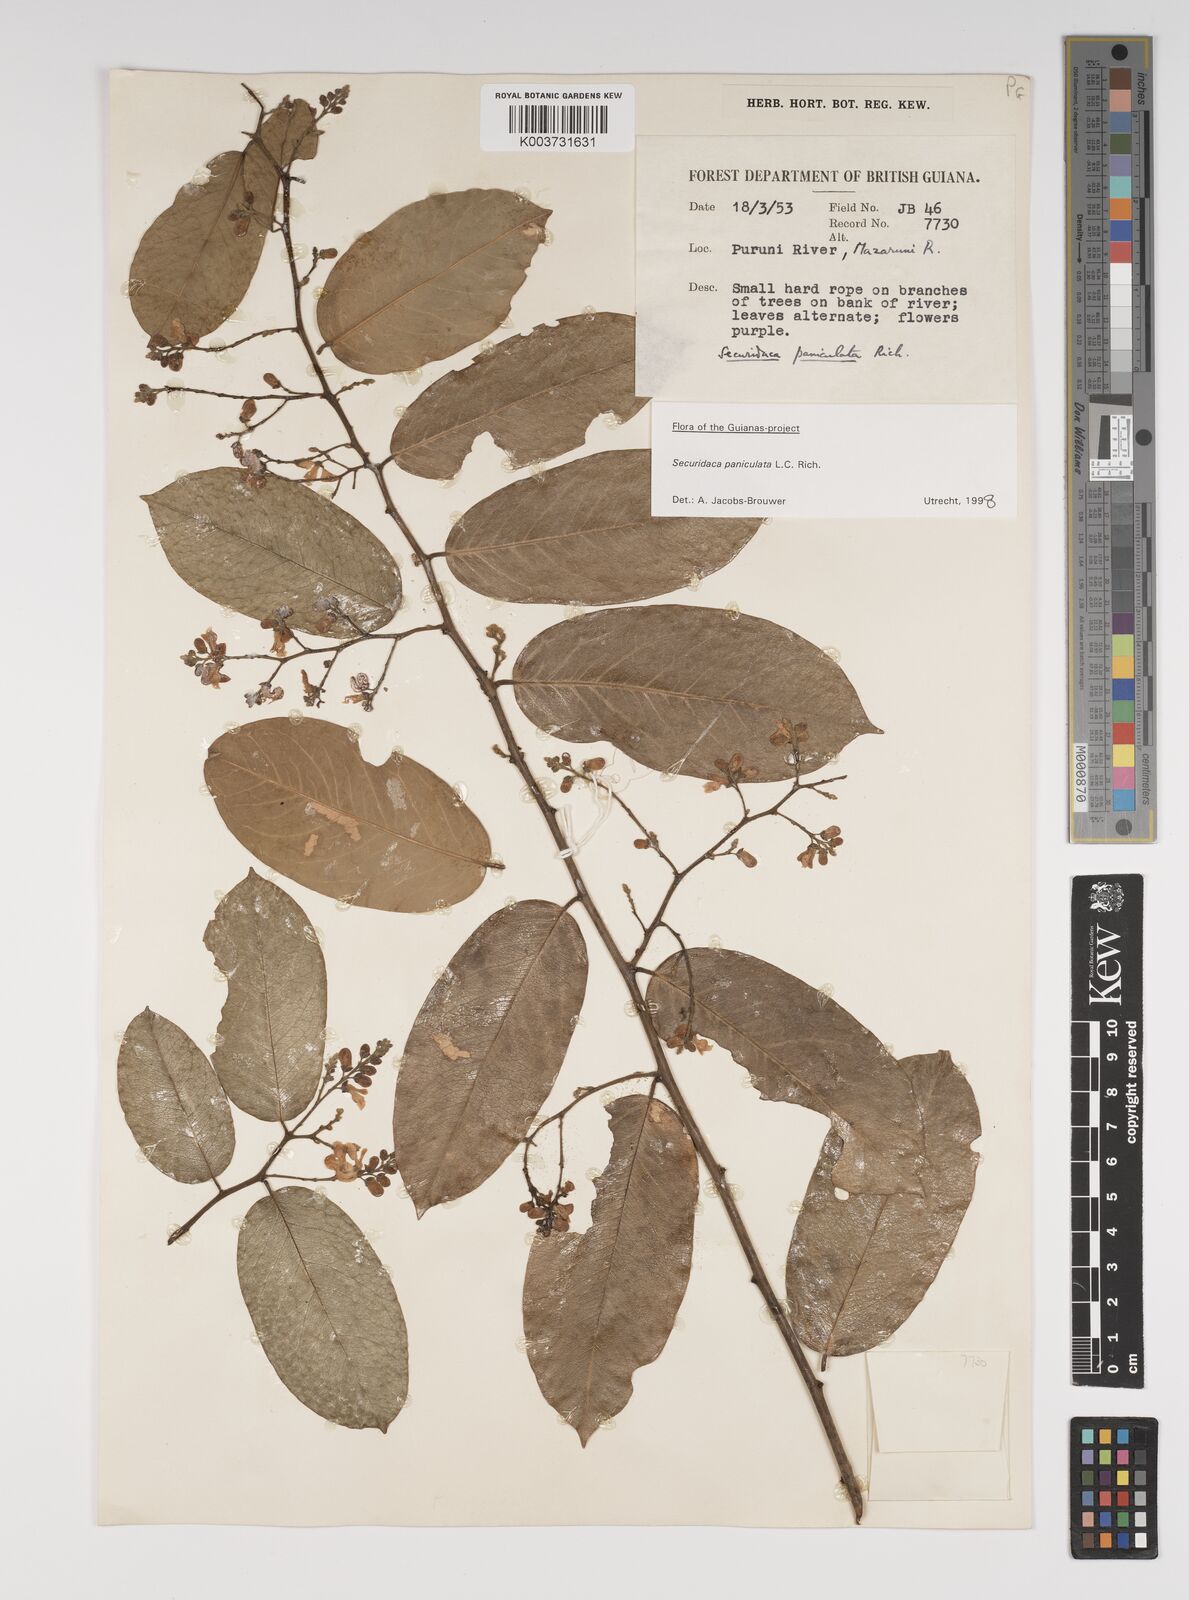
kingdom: Plantae
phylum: Tracheophyta
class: Magnoliopsida
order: Fabales
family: Polygalaceae
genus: Securidaca
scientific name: Securidaca paniculata
